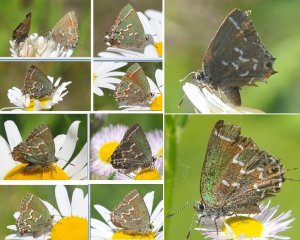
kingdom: Animalia
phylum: Arthropoda
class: Insecta
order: Lepidoptera
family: Lycaenidae
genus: Mitoura
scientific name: Mitoura gryneus
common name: Juniper Hairstreak
